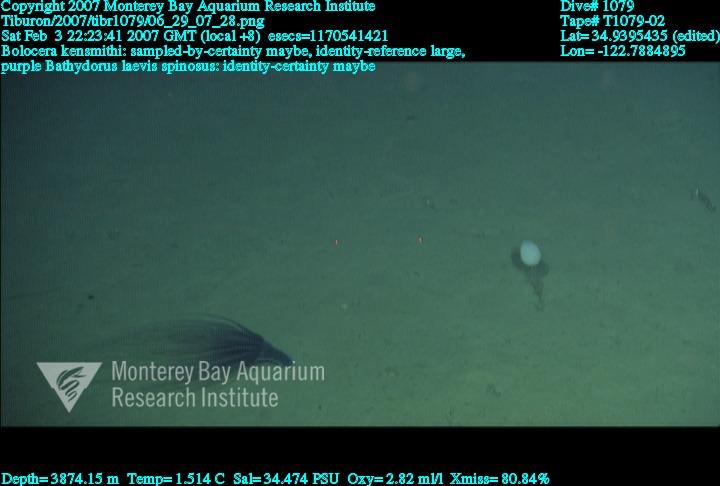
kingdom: Animalia
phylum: Porifera
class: Hexactinellida
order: Lyssacinosida
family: Rossellidae
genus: Bathydorus
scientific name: Bathydorus spinosus
